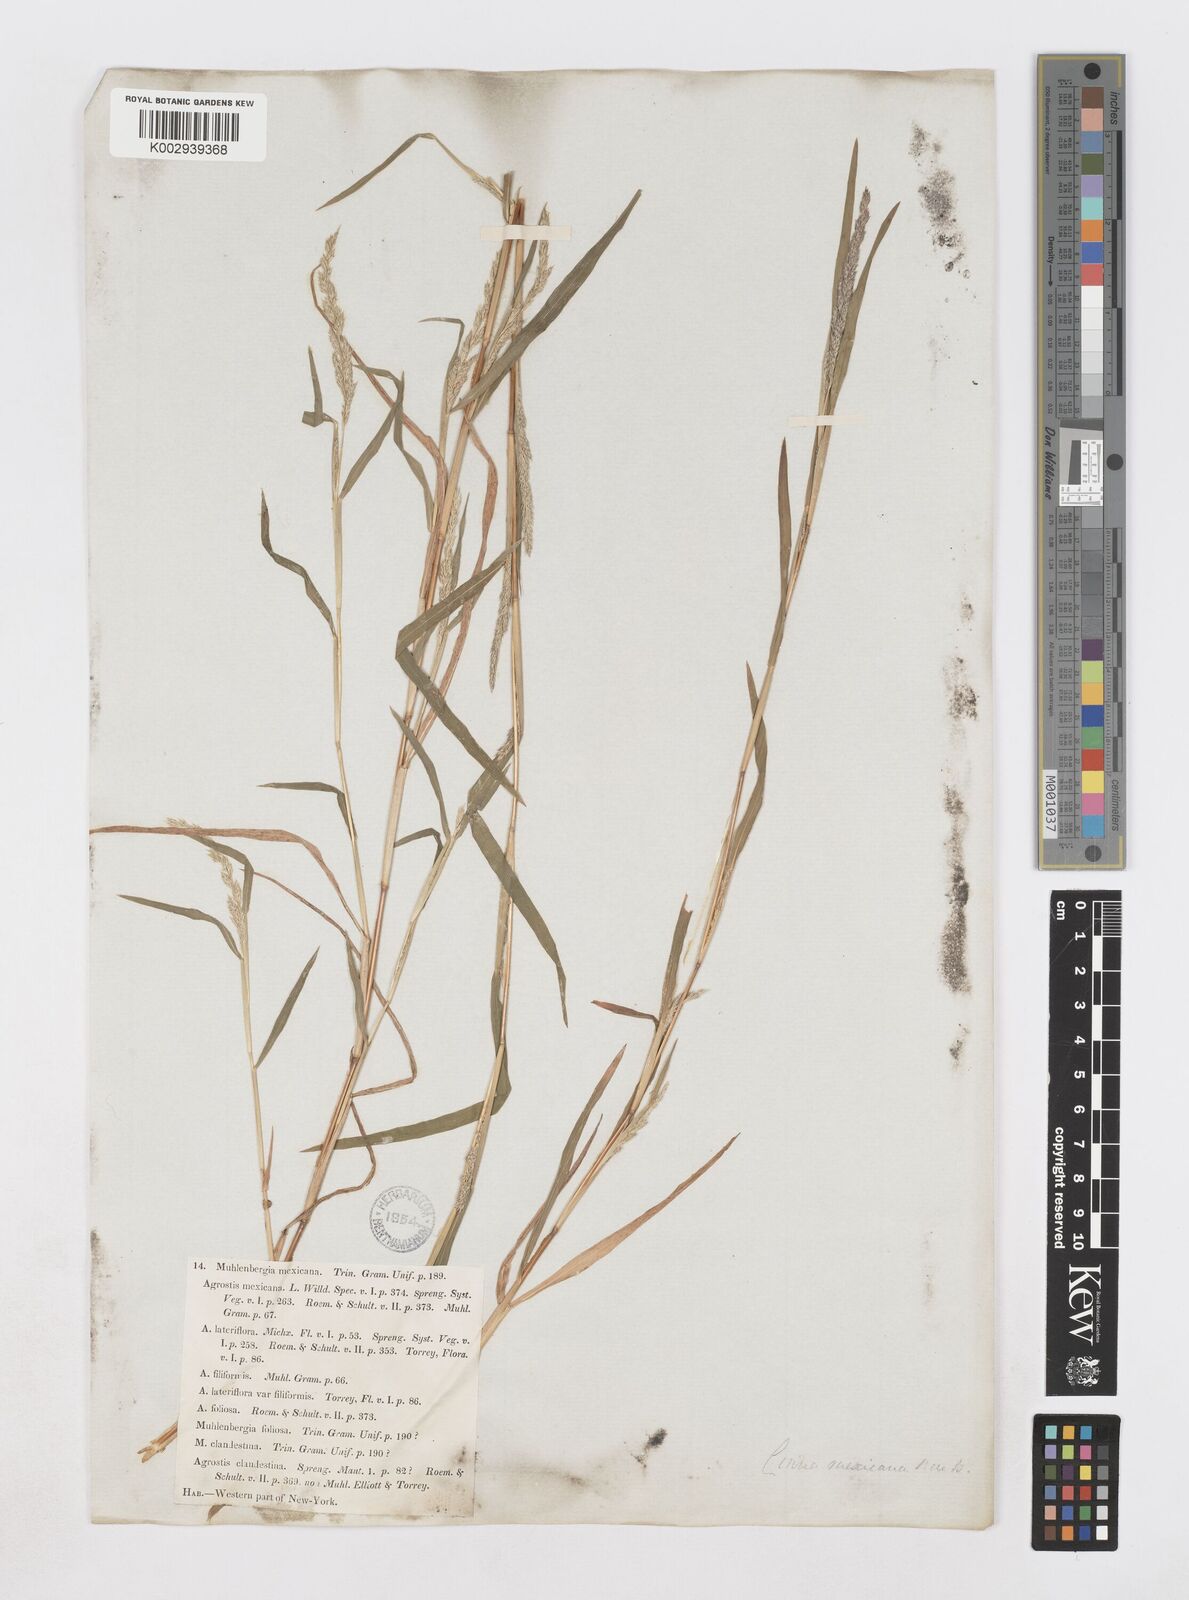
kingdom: Plantae
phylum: Tracheophyta
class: Liliopsida
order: Poales
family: Poaceae
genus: Muhlenbergia
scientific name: Muhlenbergia mexicana
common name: Mexican muhly
